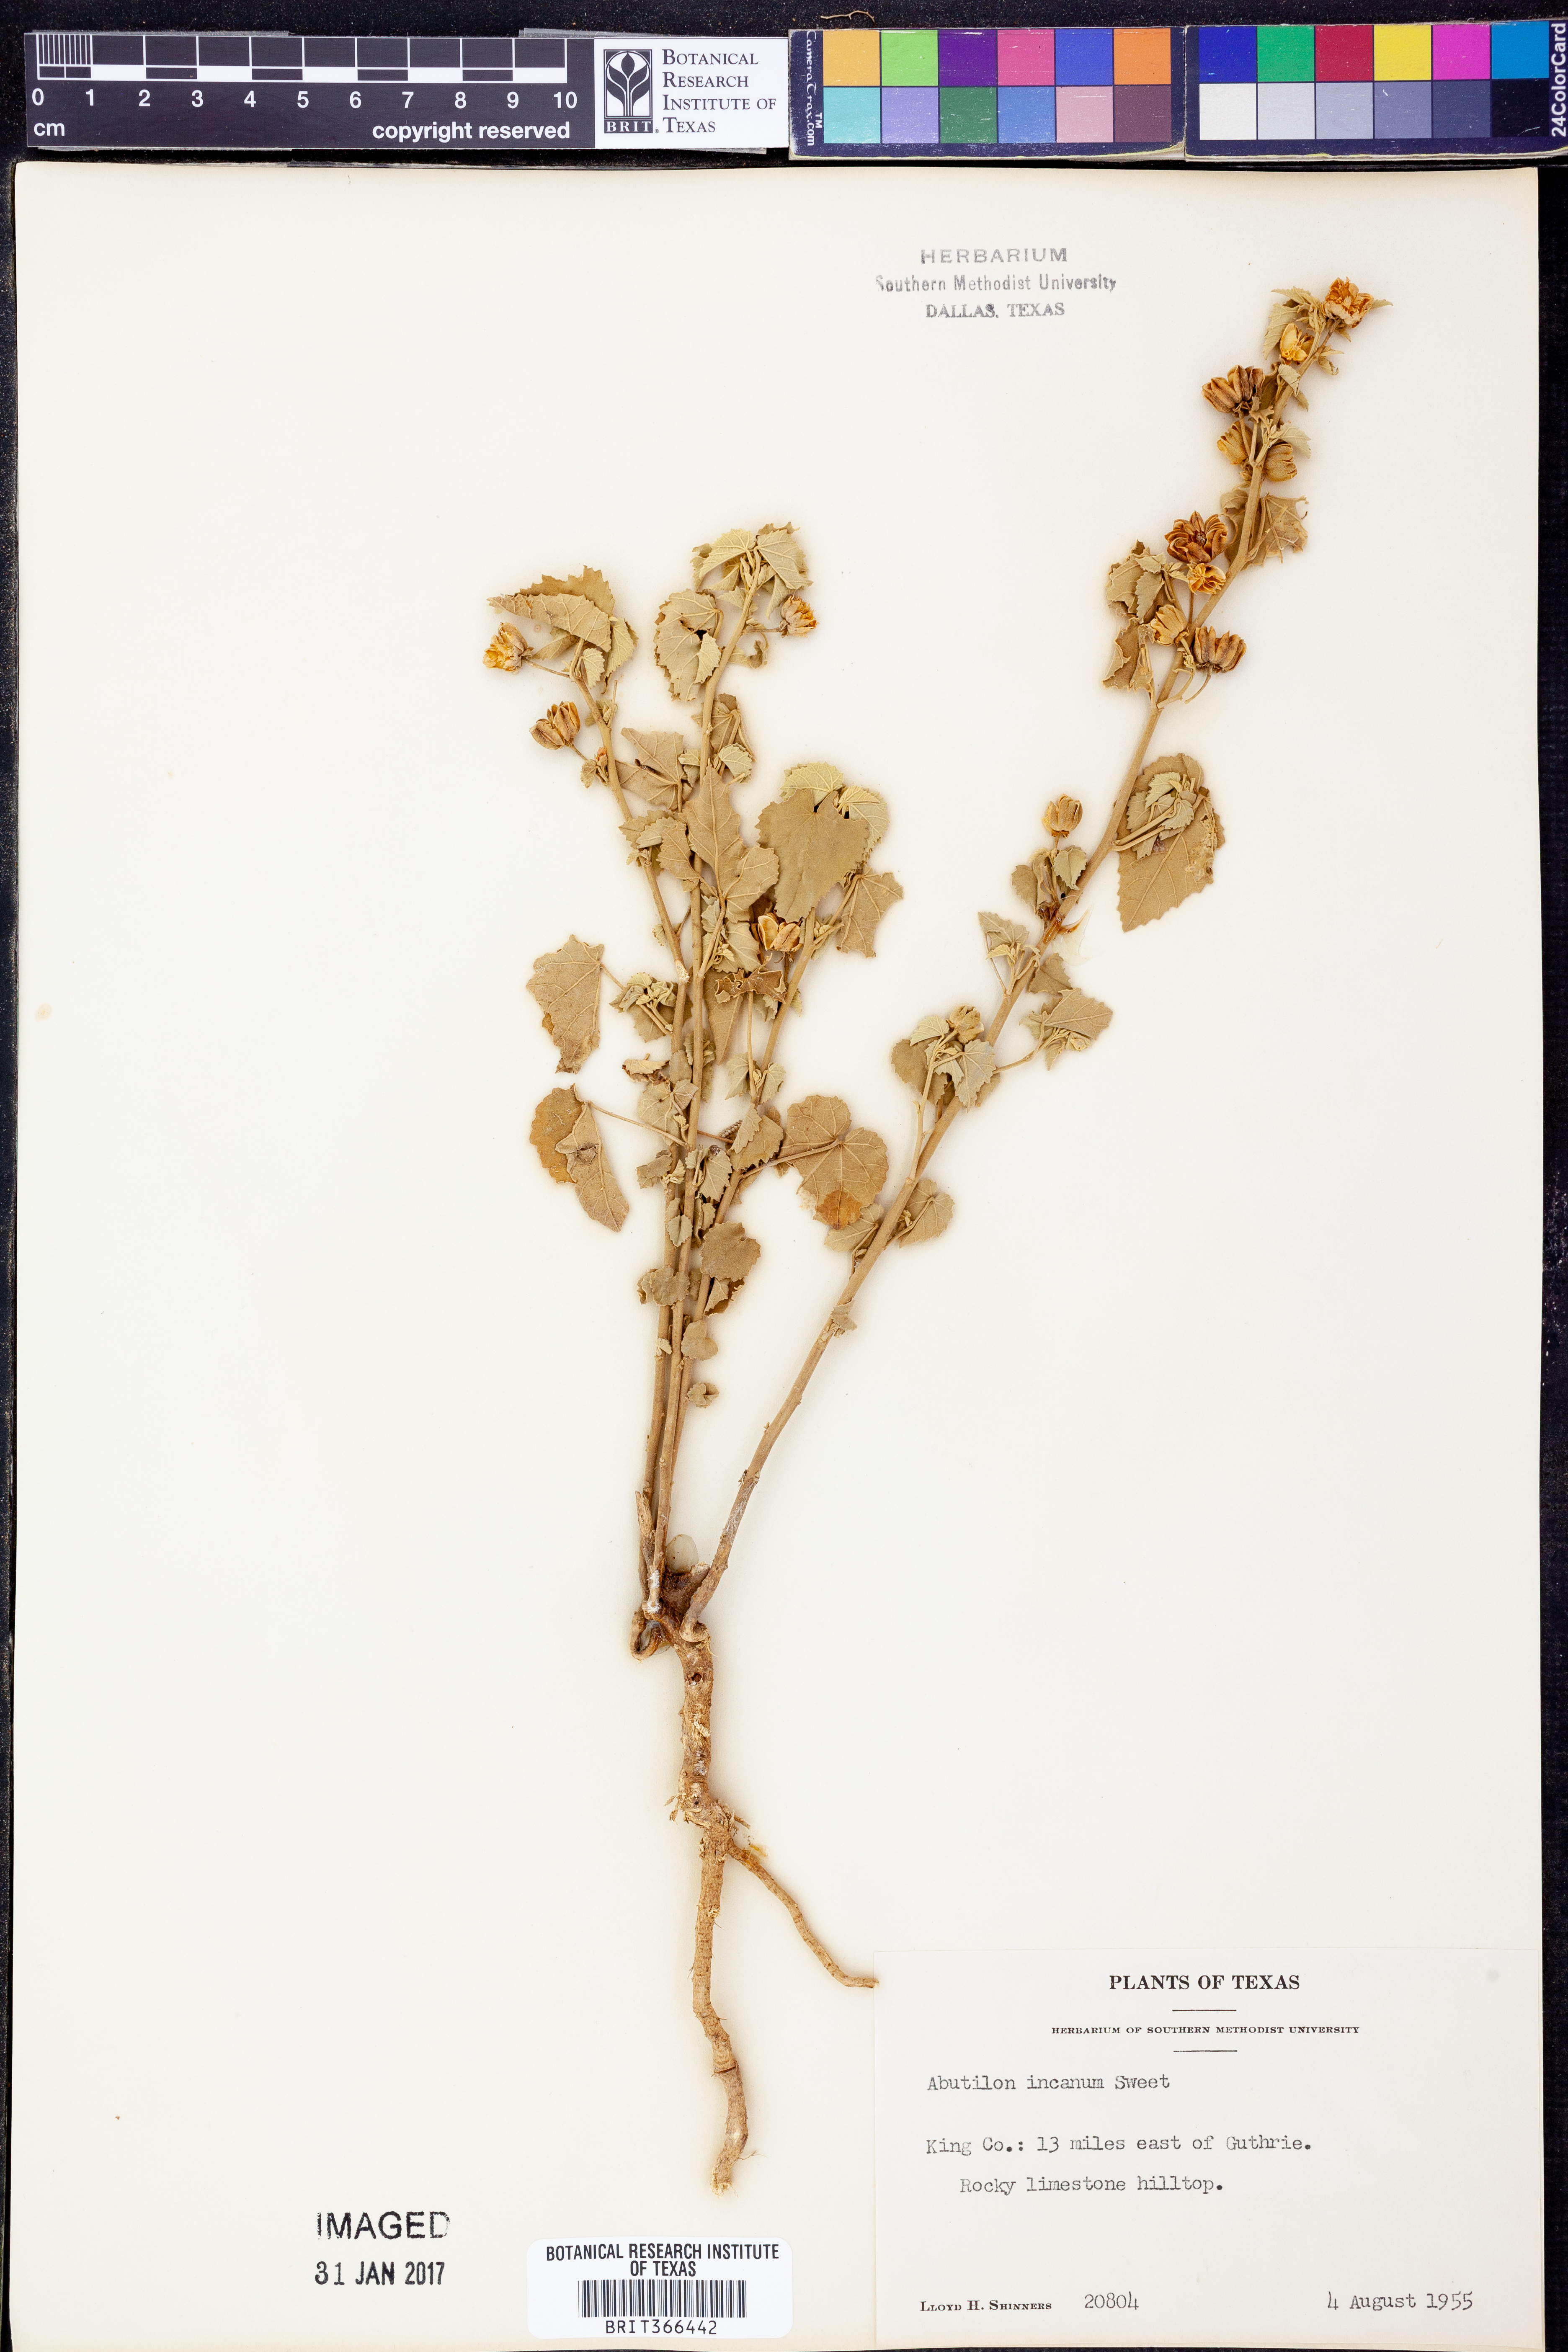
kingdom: Plantae
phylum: Tracheophyta
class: Magnoliopsida
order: Malvales
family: Malvaceae
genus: Abutilon
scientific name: Abutilon incanum
